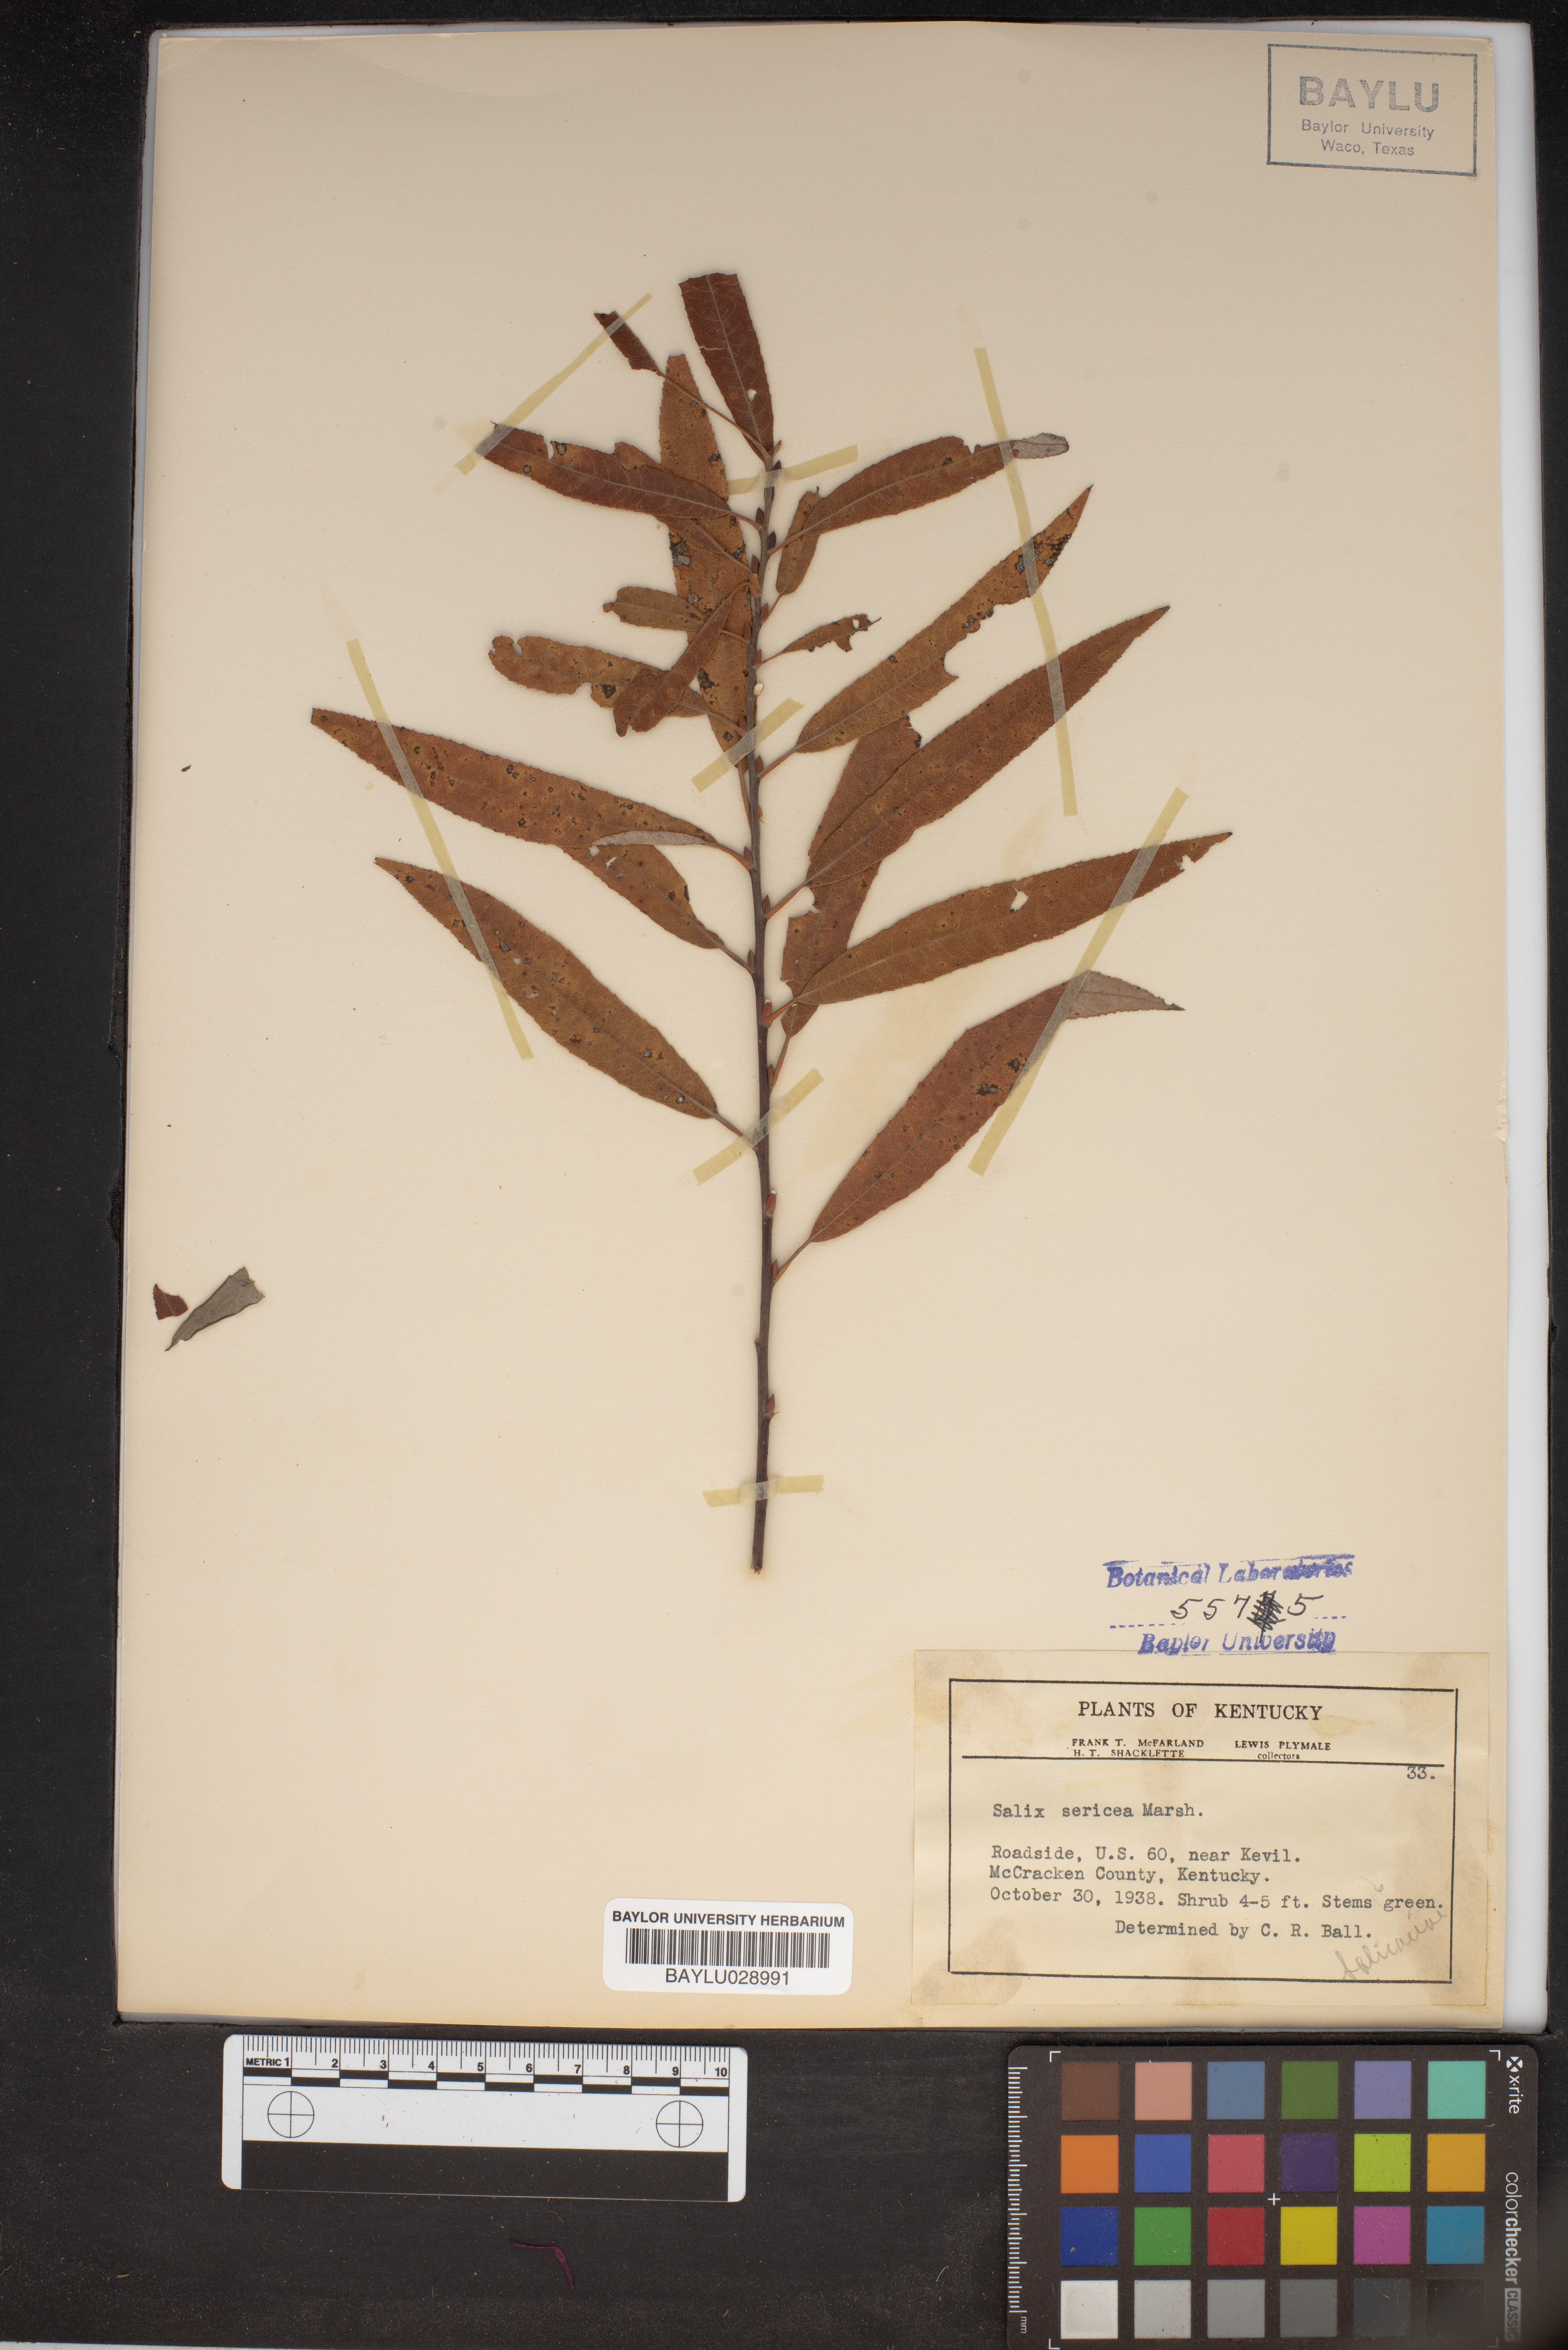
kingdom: Plantae
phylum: Tracheophyta
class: Magnoliopsida
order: Malpighiales
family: Salicaceae
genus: Salix
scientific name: Salix sericea
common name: Silky willow
